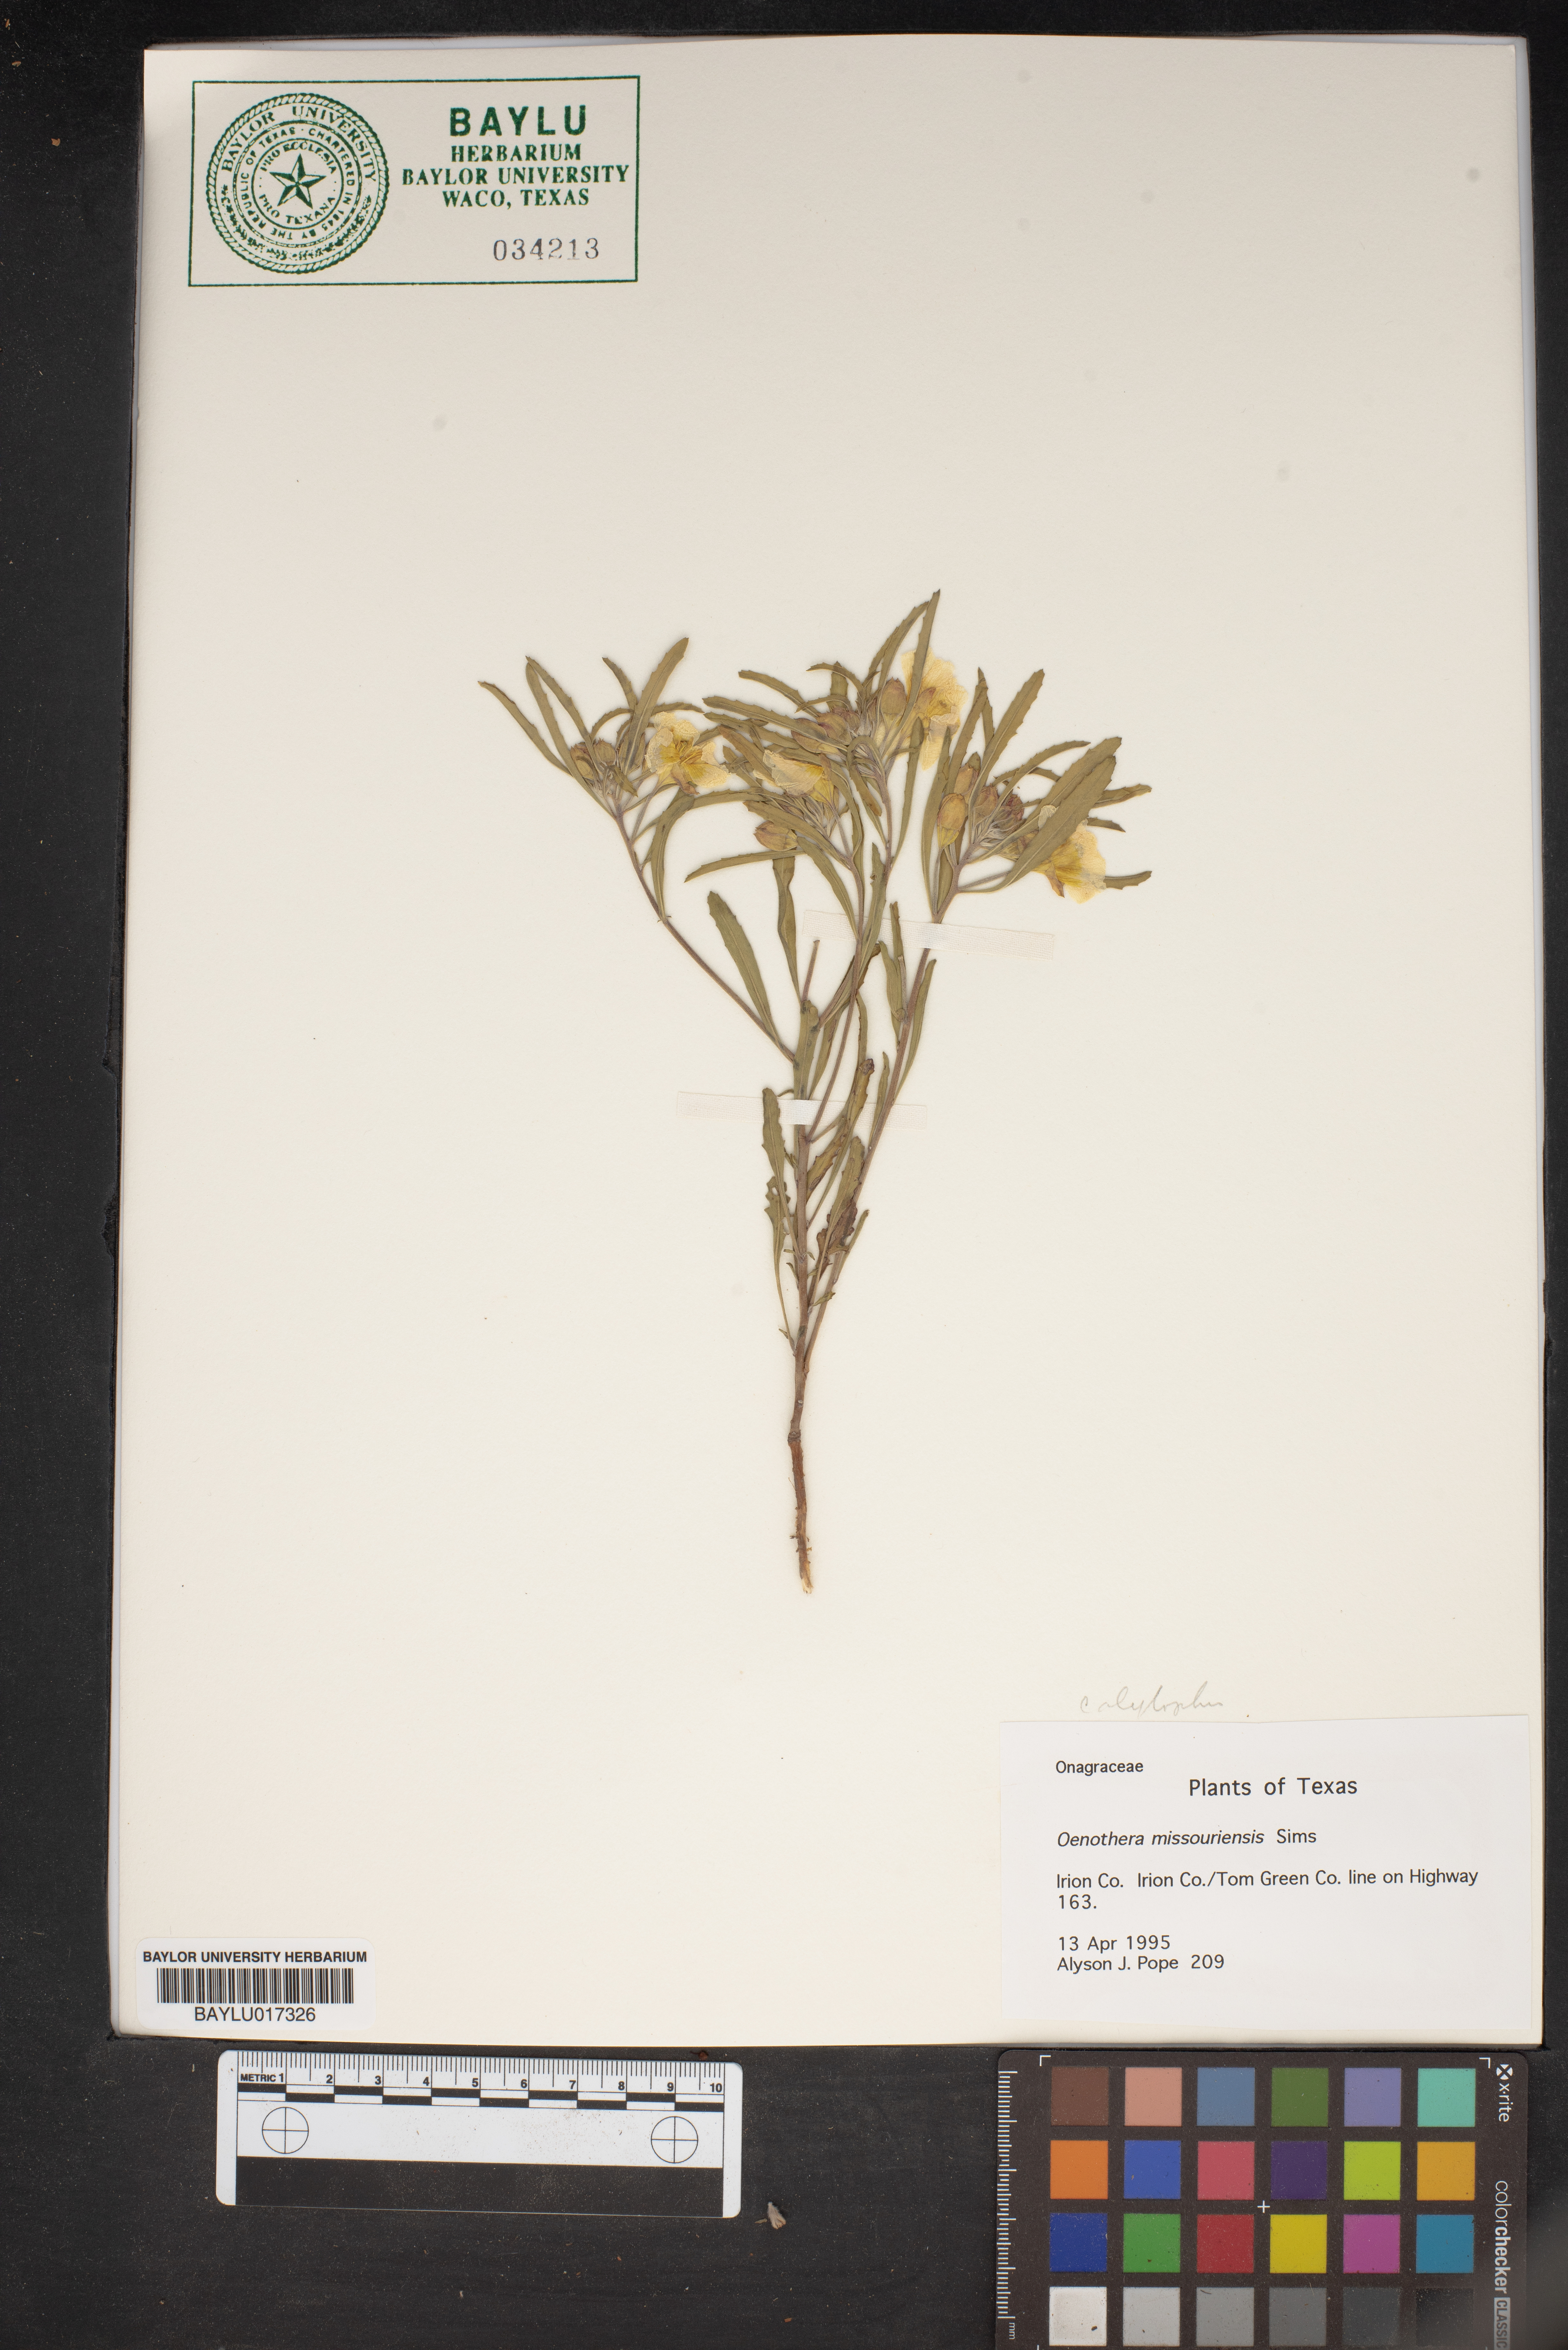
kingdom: Plantae
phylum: Tracheophyta
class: Magnoliopsida
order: Myrtales
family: Onagraceae
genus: Oenothera
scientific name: Oenothera macrocarpa
